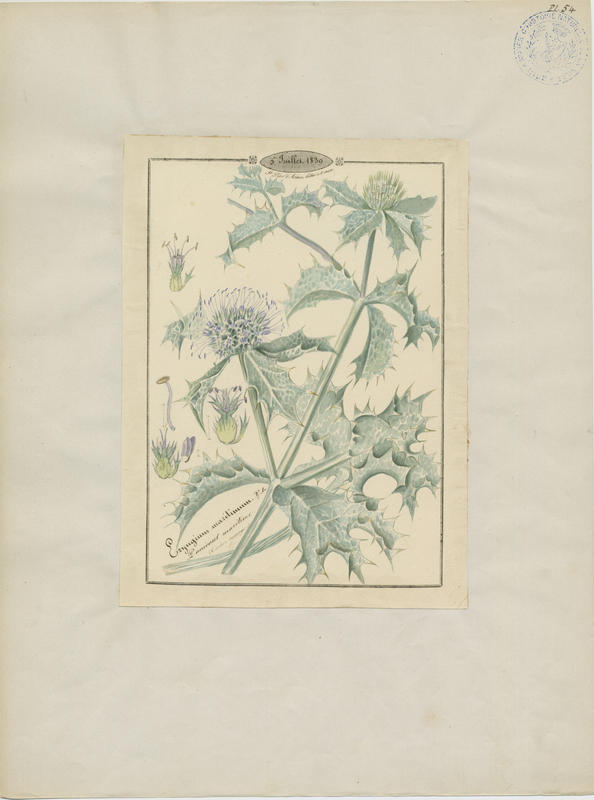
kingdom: Plantae
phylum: Tracheophyta
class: Magnoliopsida
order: Apiales
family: Apiaceae
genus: Eryngium
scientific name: Eryngium maritimum
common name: Sea-holly
